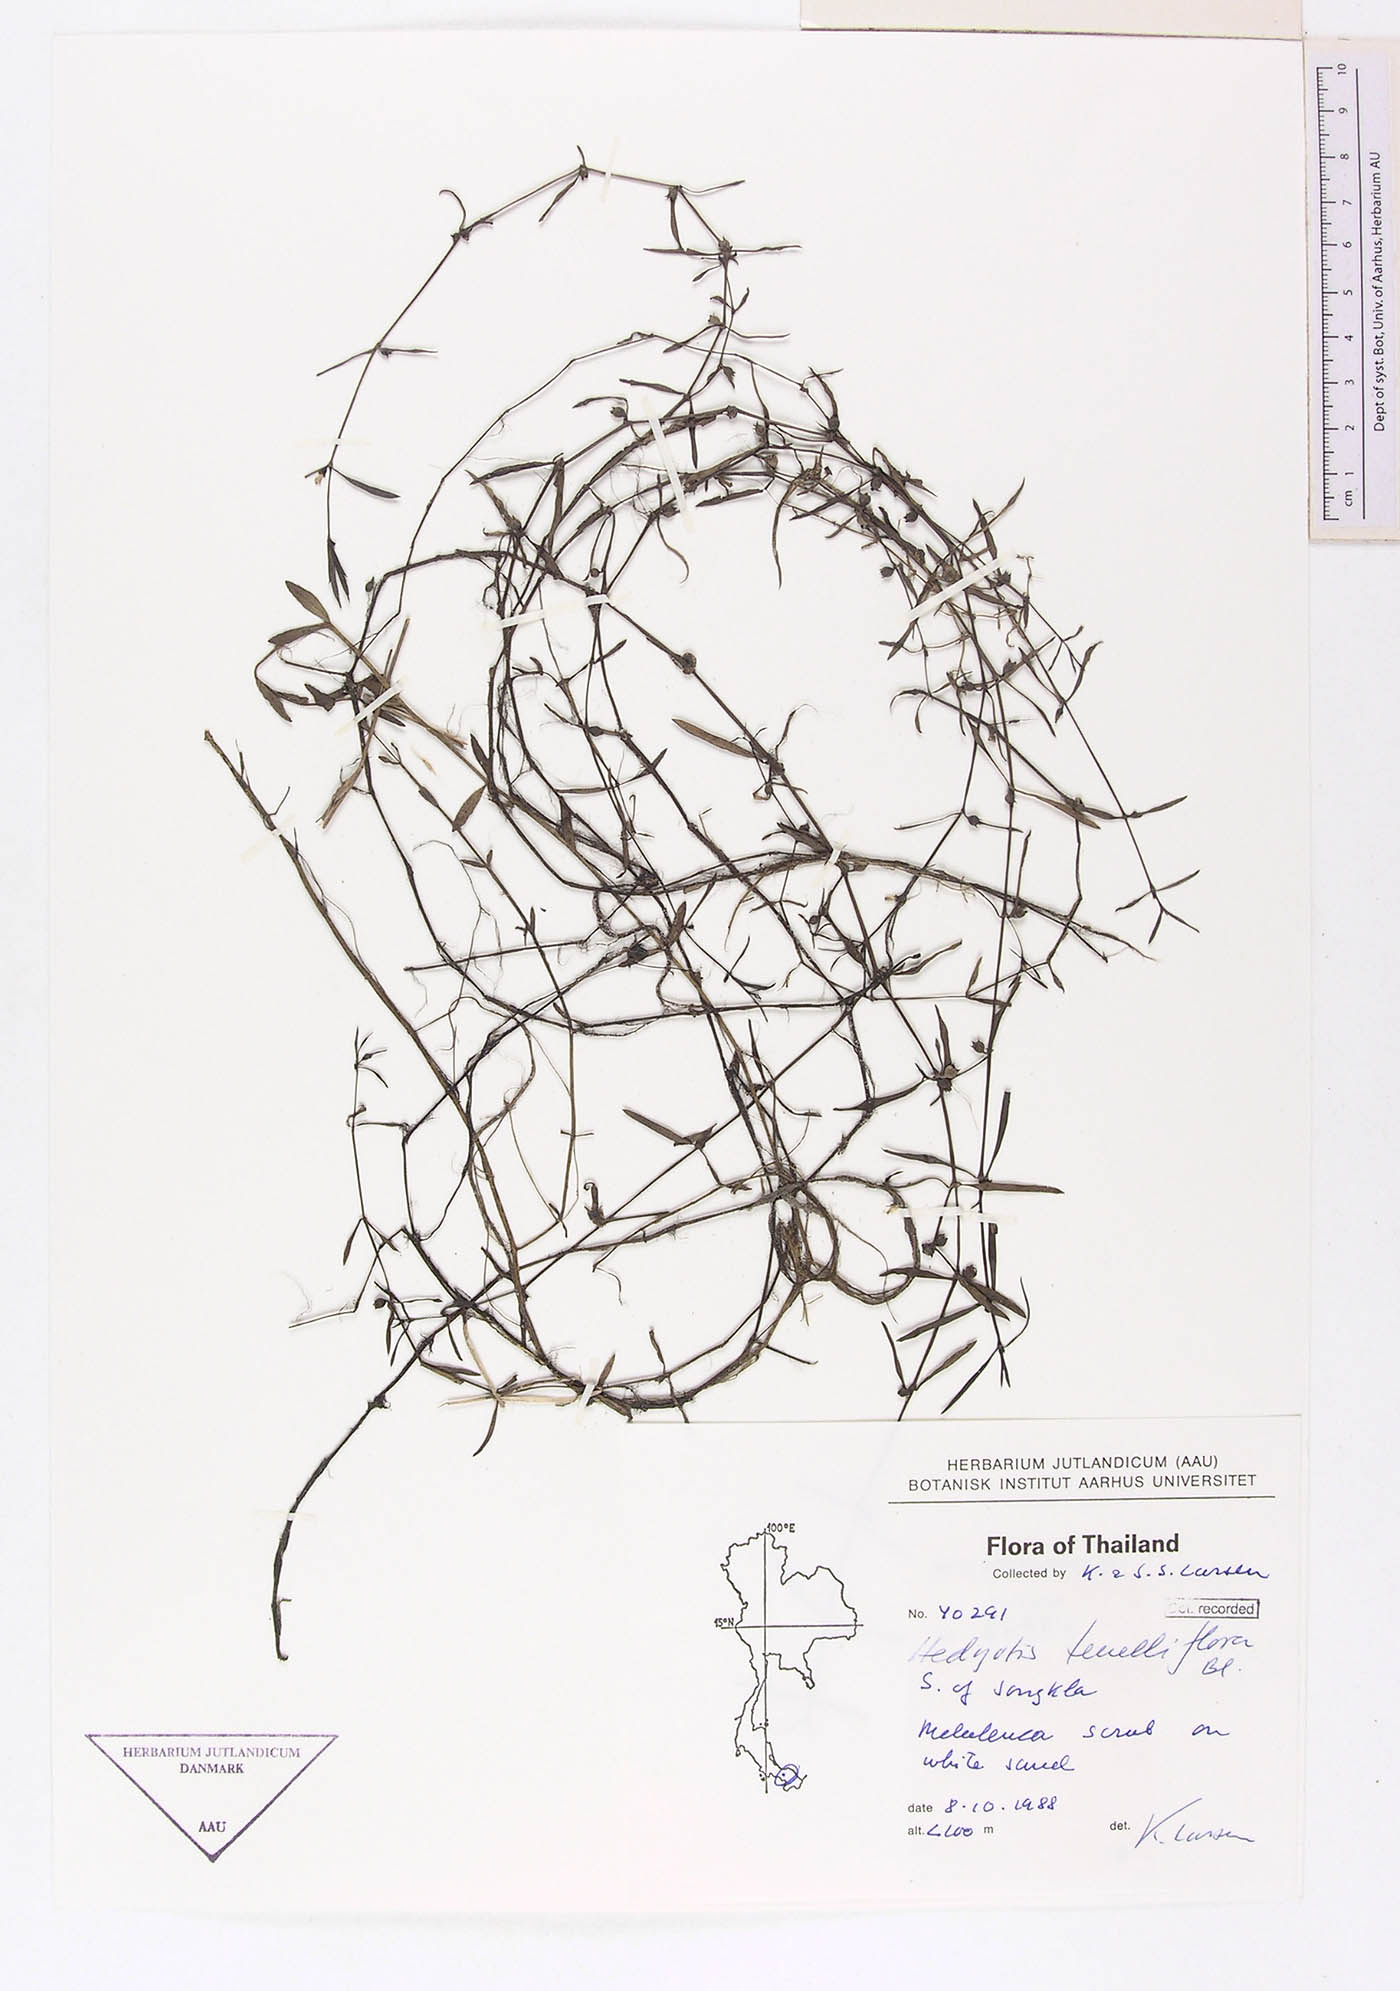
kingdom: Plantae
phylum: Tracheophyta
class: Magnoliopsida
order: Gentianales
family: Rubiaceae
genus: Scleromitrion
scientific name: Scleromitrion brachypodum
